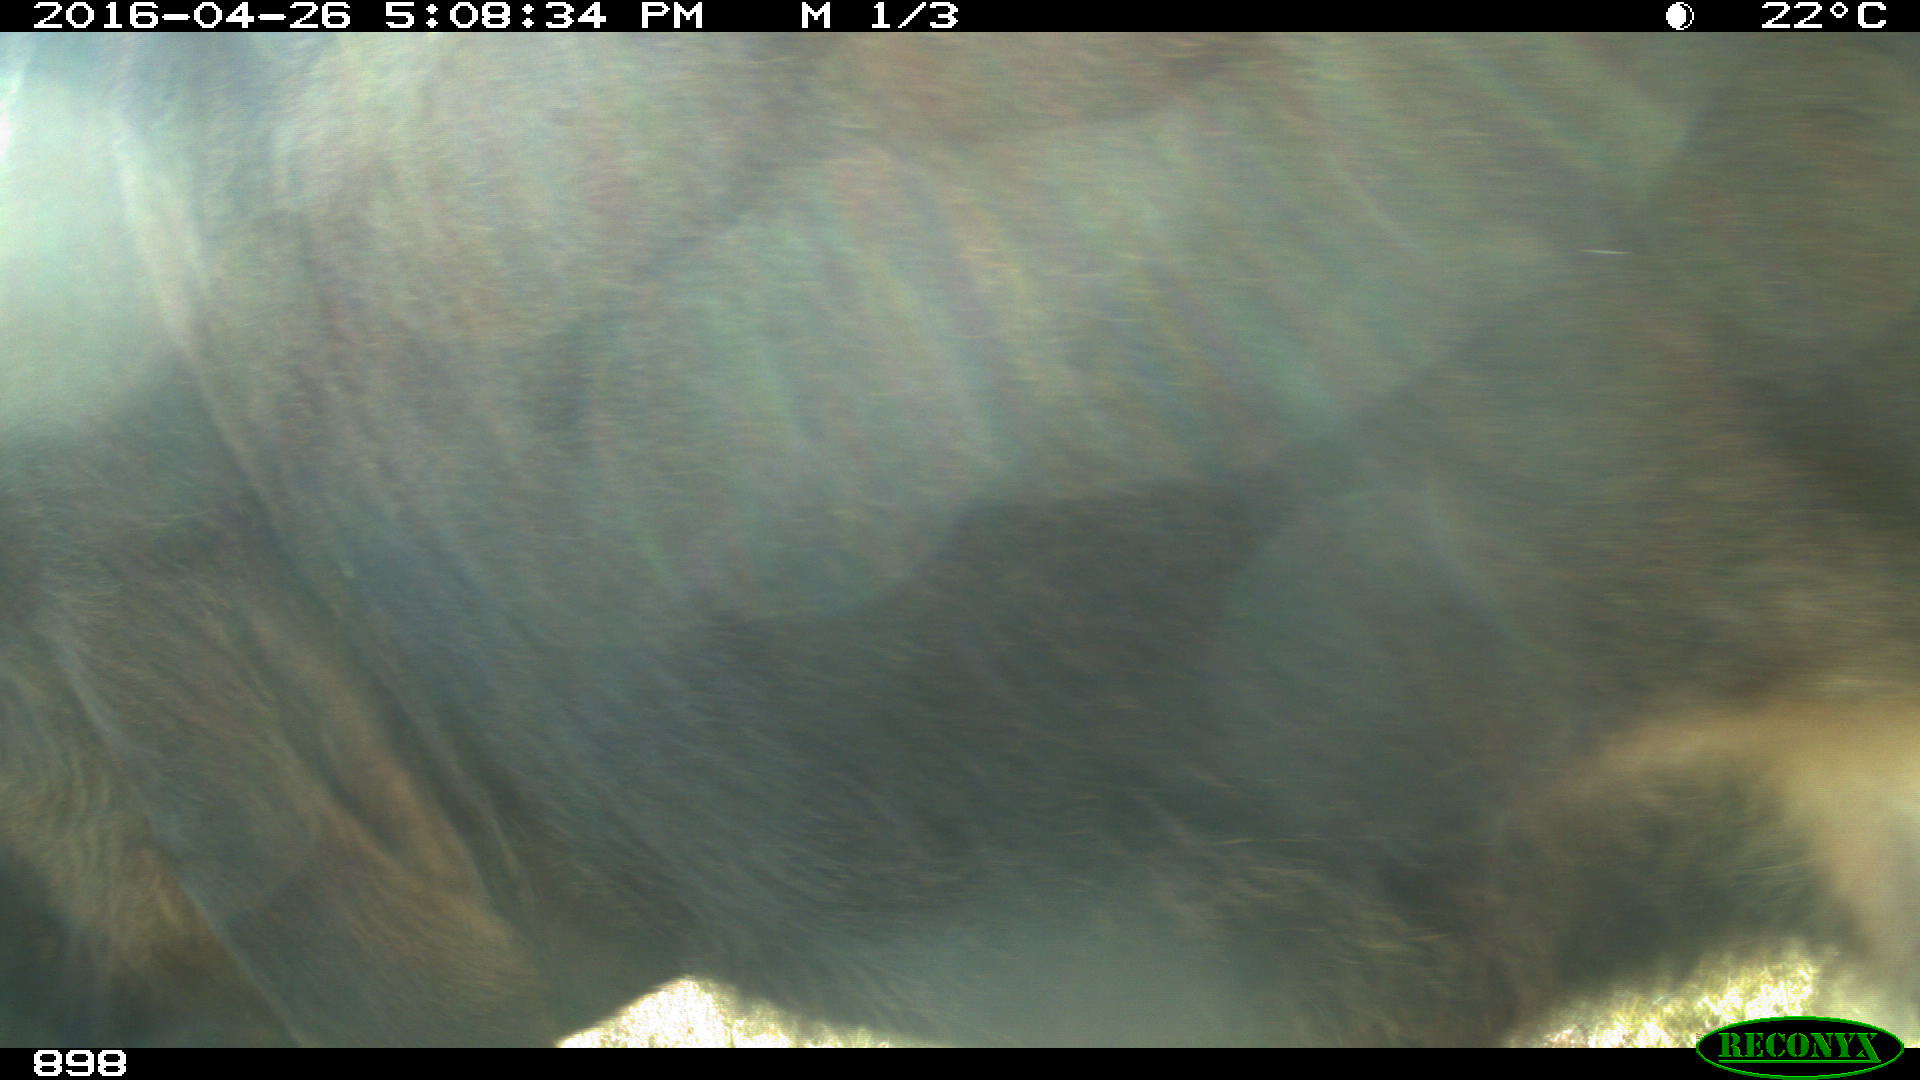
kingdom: Animalia
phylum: Chordata
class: Mammalia
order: Artiodactyla
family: Bovidae
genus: Bos
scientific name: Bos taurus
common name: Domesticated cattle
